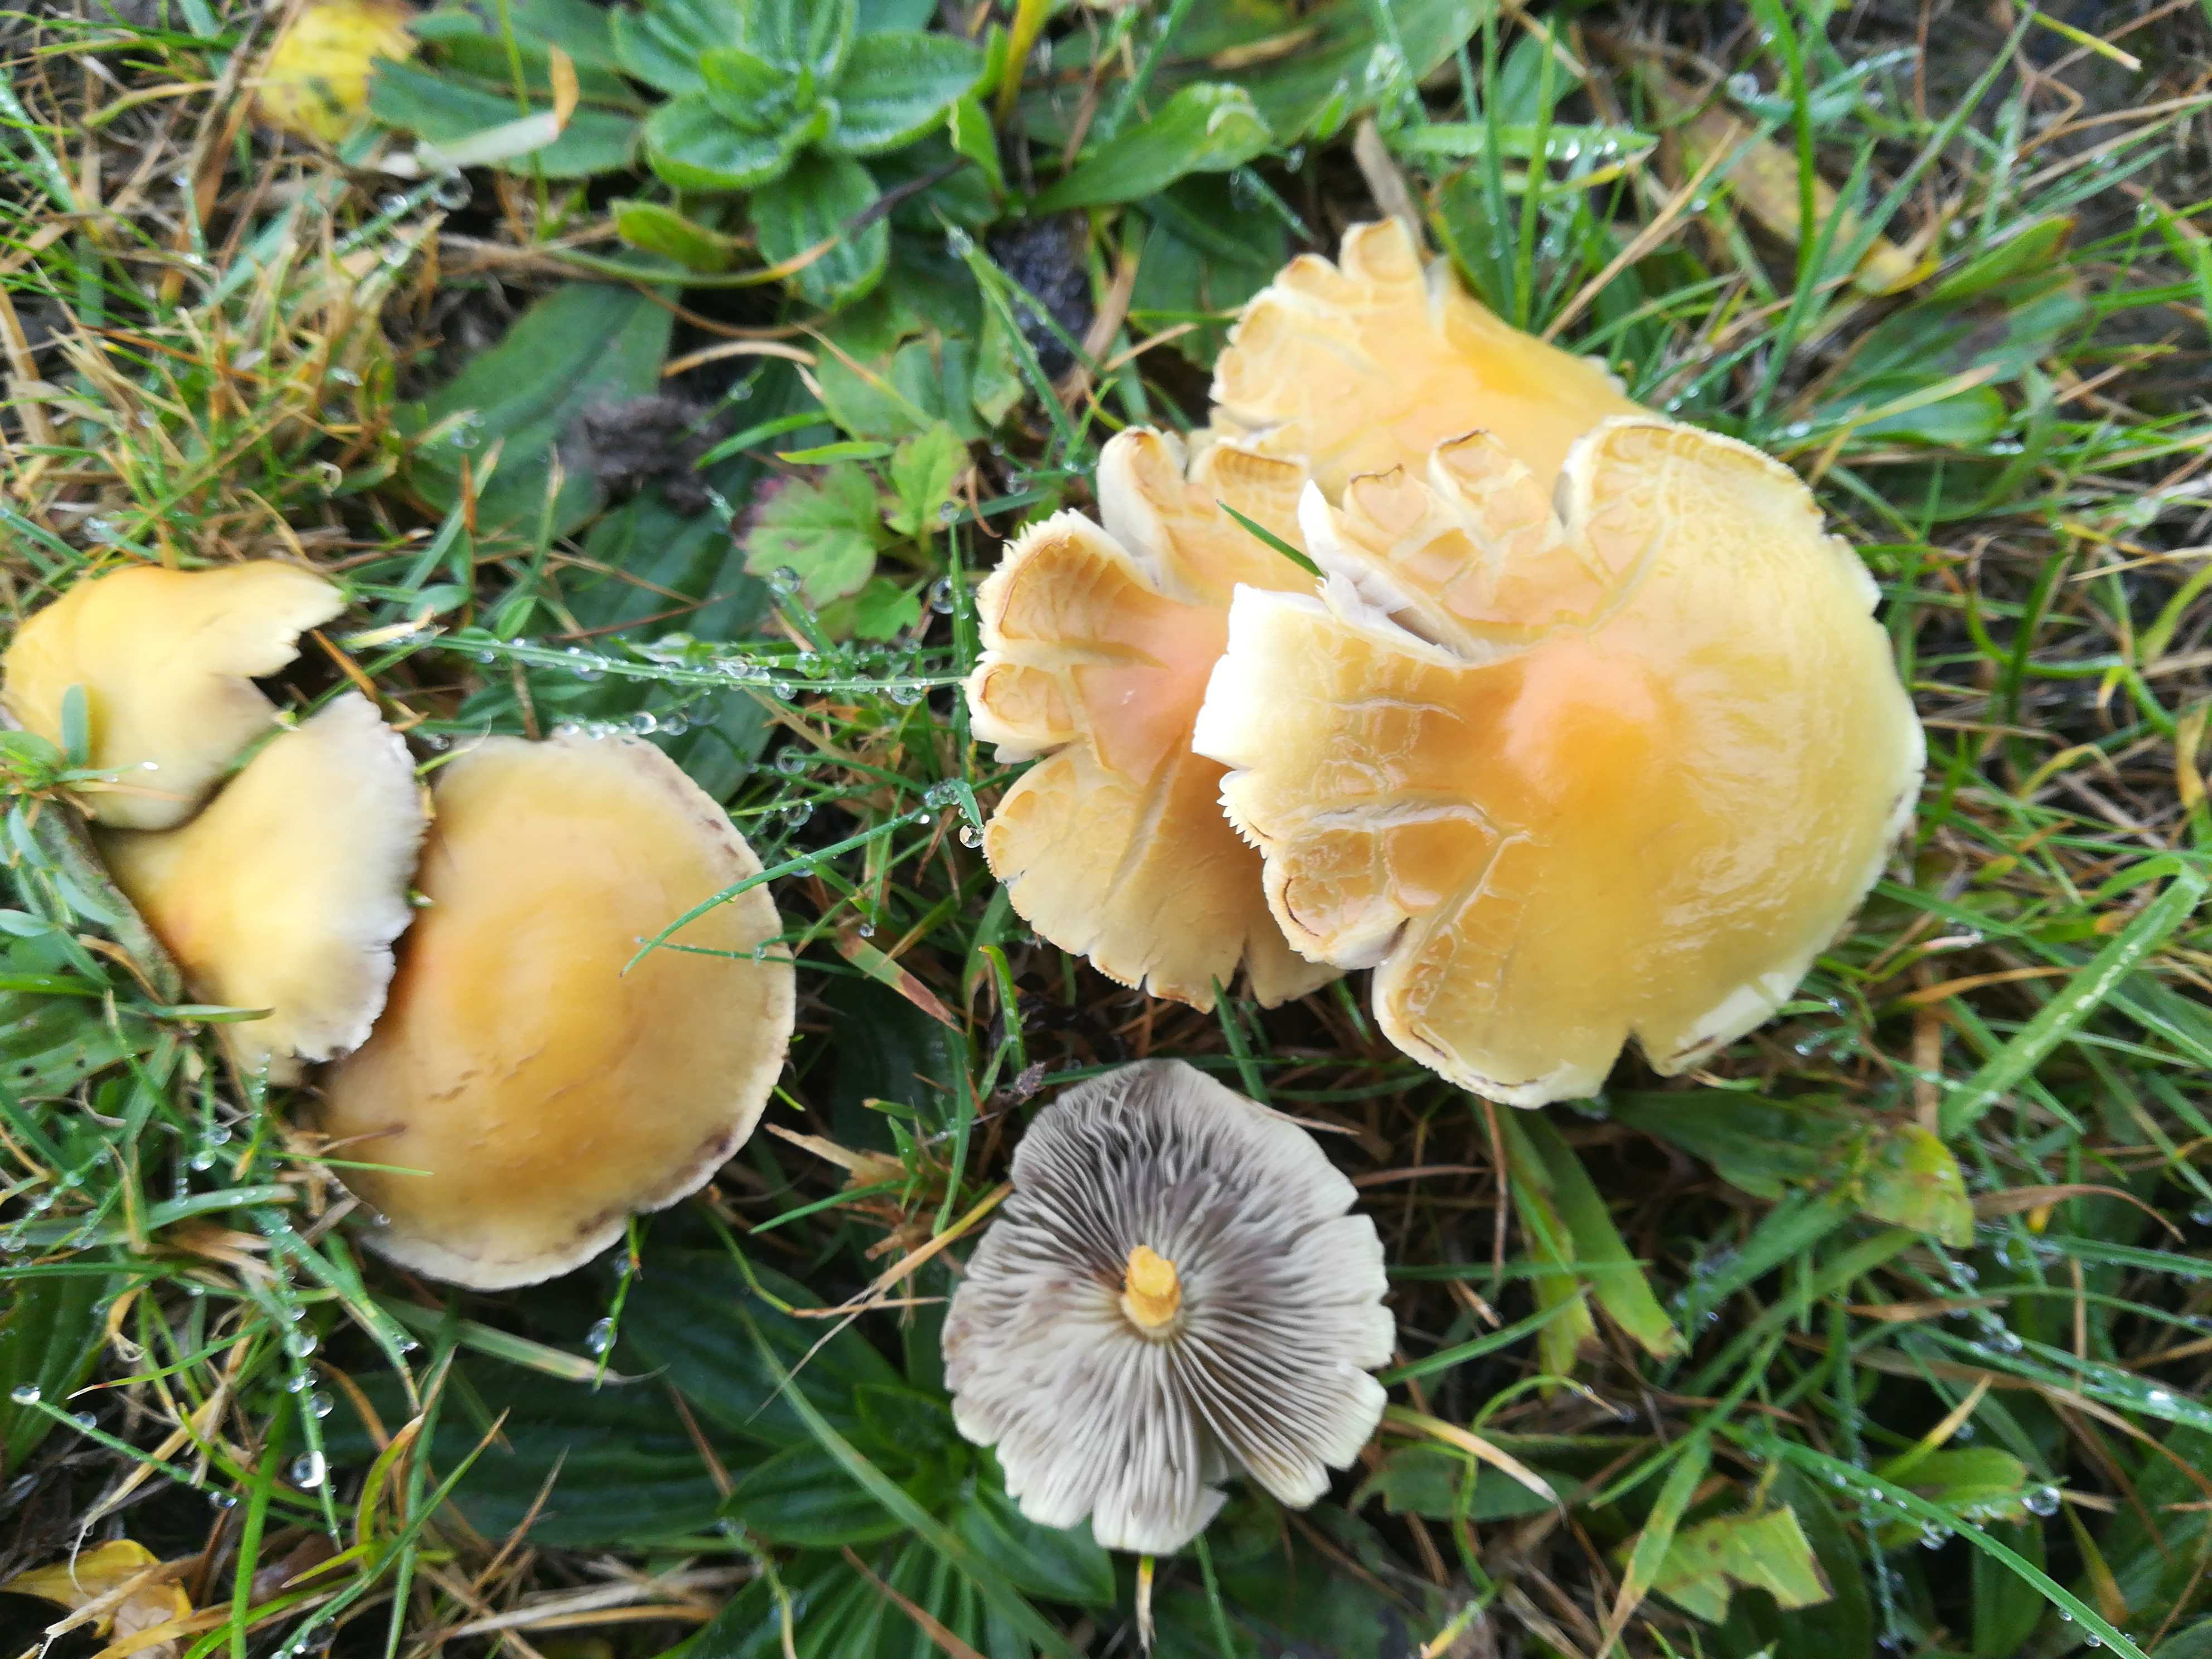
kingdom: Fungi
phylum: Basidiomycota
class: Agaricomycetes
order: Agaricales
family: Strophariaceae
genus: Hypholoma
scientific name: Hypholoma capnoides
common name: gran-svovlhat
